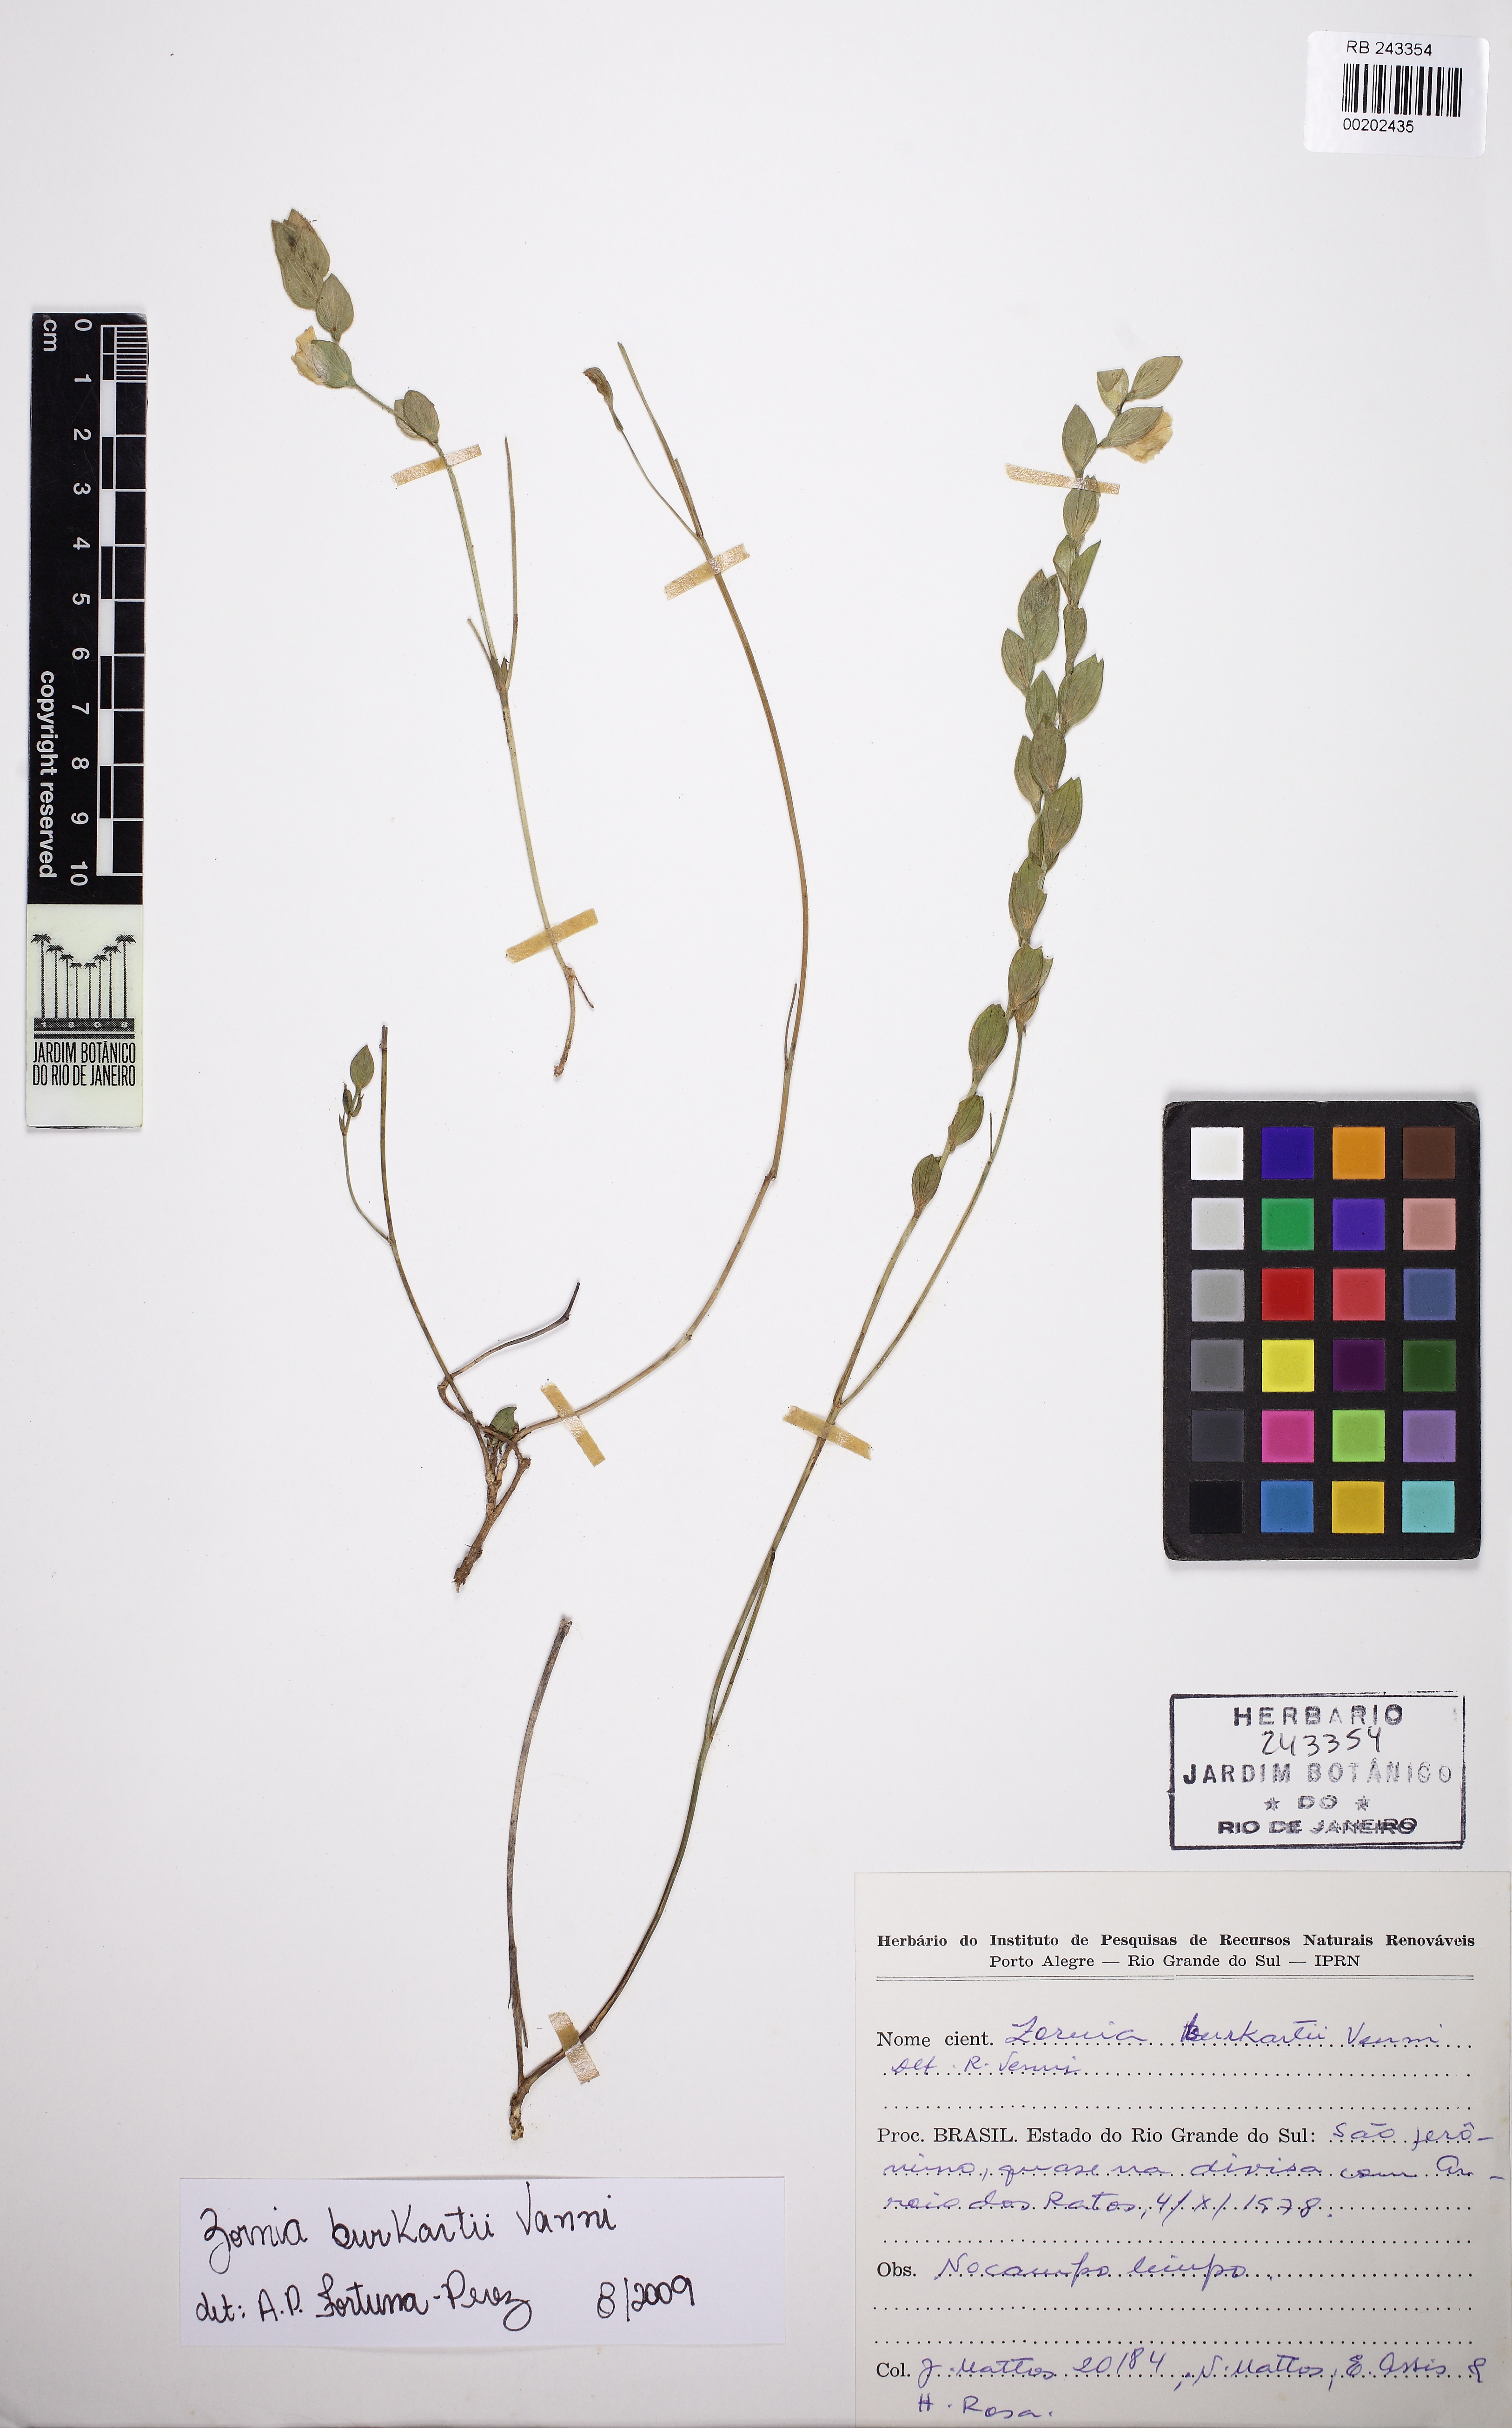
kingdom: Plantae
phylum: Tracheophyta
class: Magnoliopsida
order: Fabales
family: Fabaceae
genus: Zornia
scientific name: Zornia burkartii
